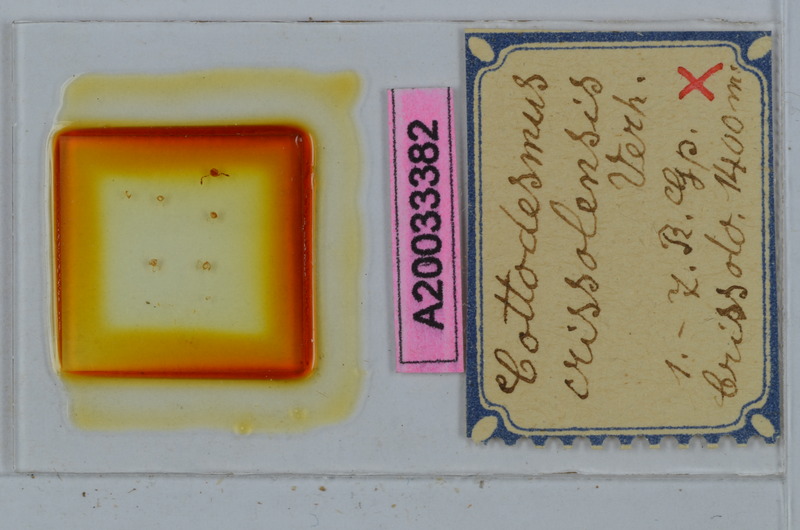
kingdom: Animalia
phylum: Arthropoda
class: Diplopoda
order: Polydesmida
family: Trichopolydesmidae
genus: Cottodesmus
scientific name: Cottodesmus crissolensis
